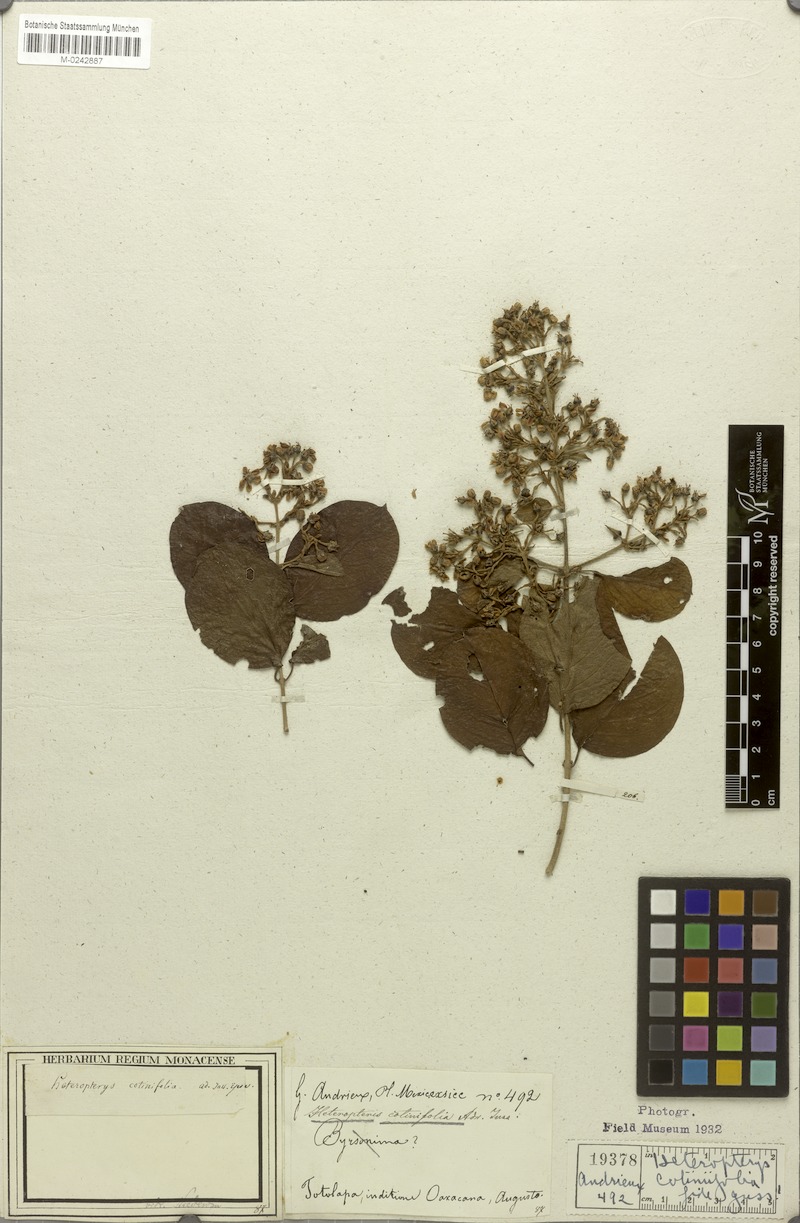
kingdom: Plantae
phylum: Tracheophyta
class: Magnoliopsida
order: Malpighiales
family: Malpighiaceae
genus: Heteropterys
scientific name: Heteropterys cotinifolia
